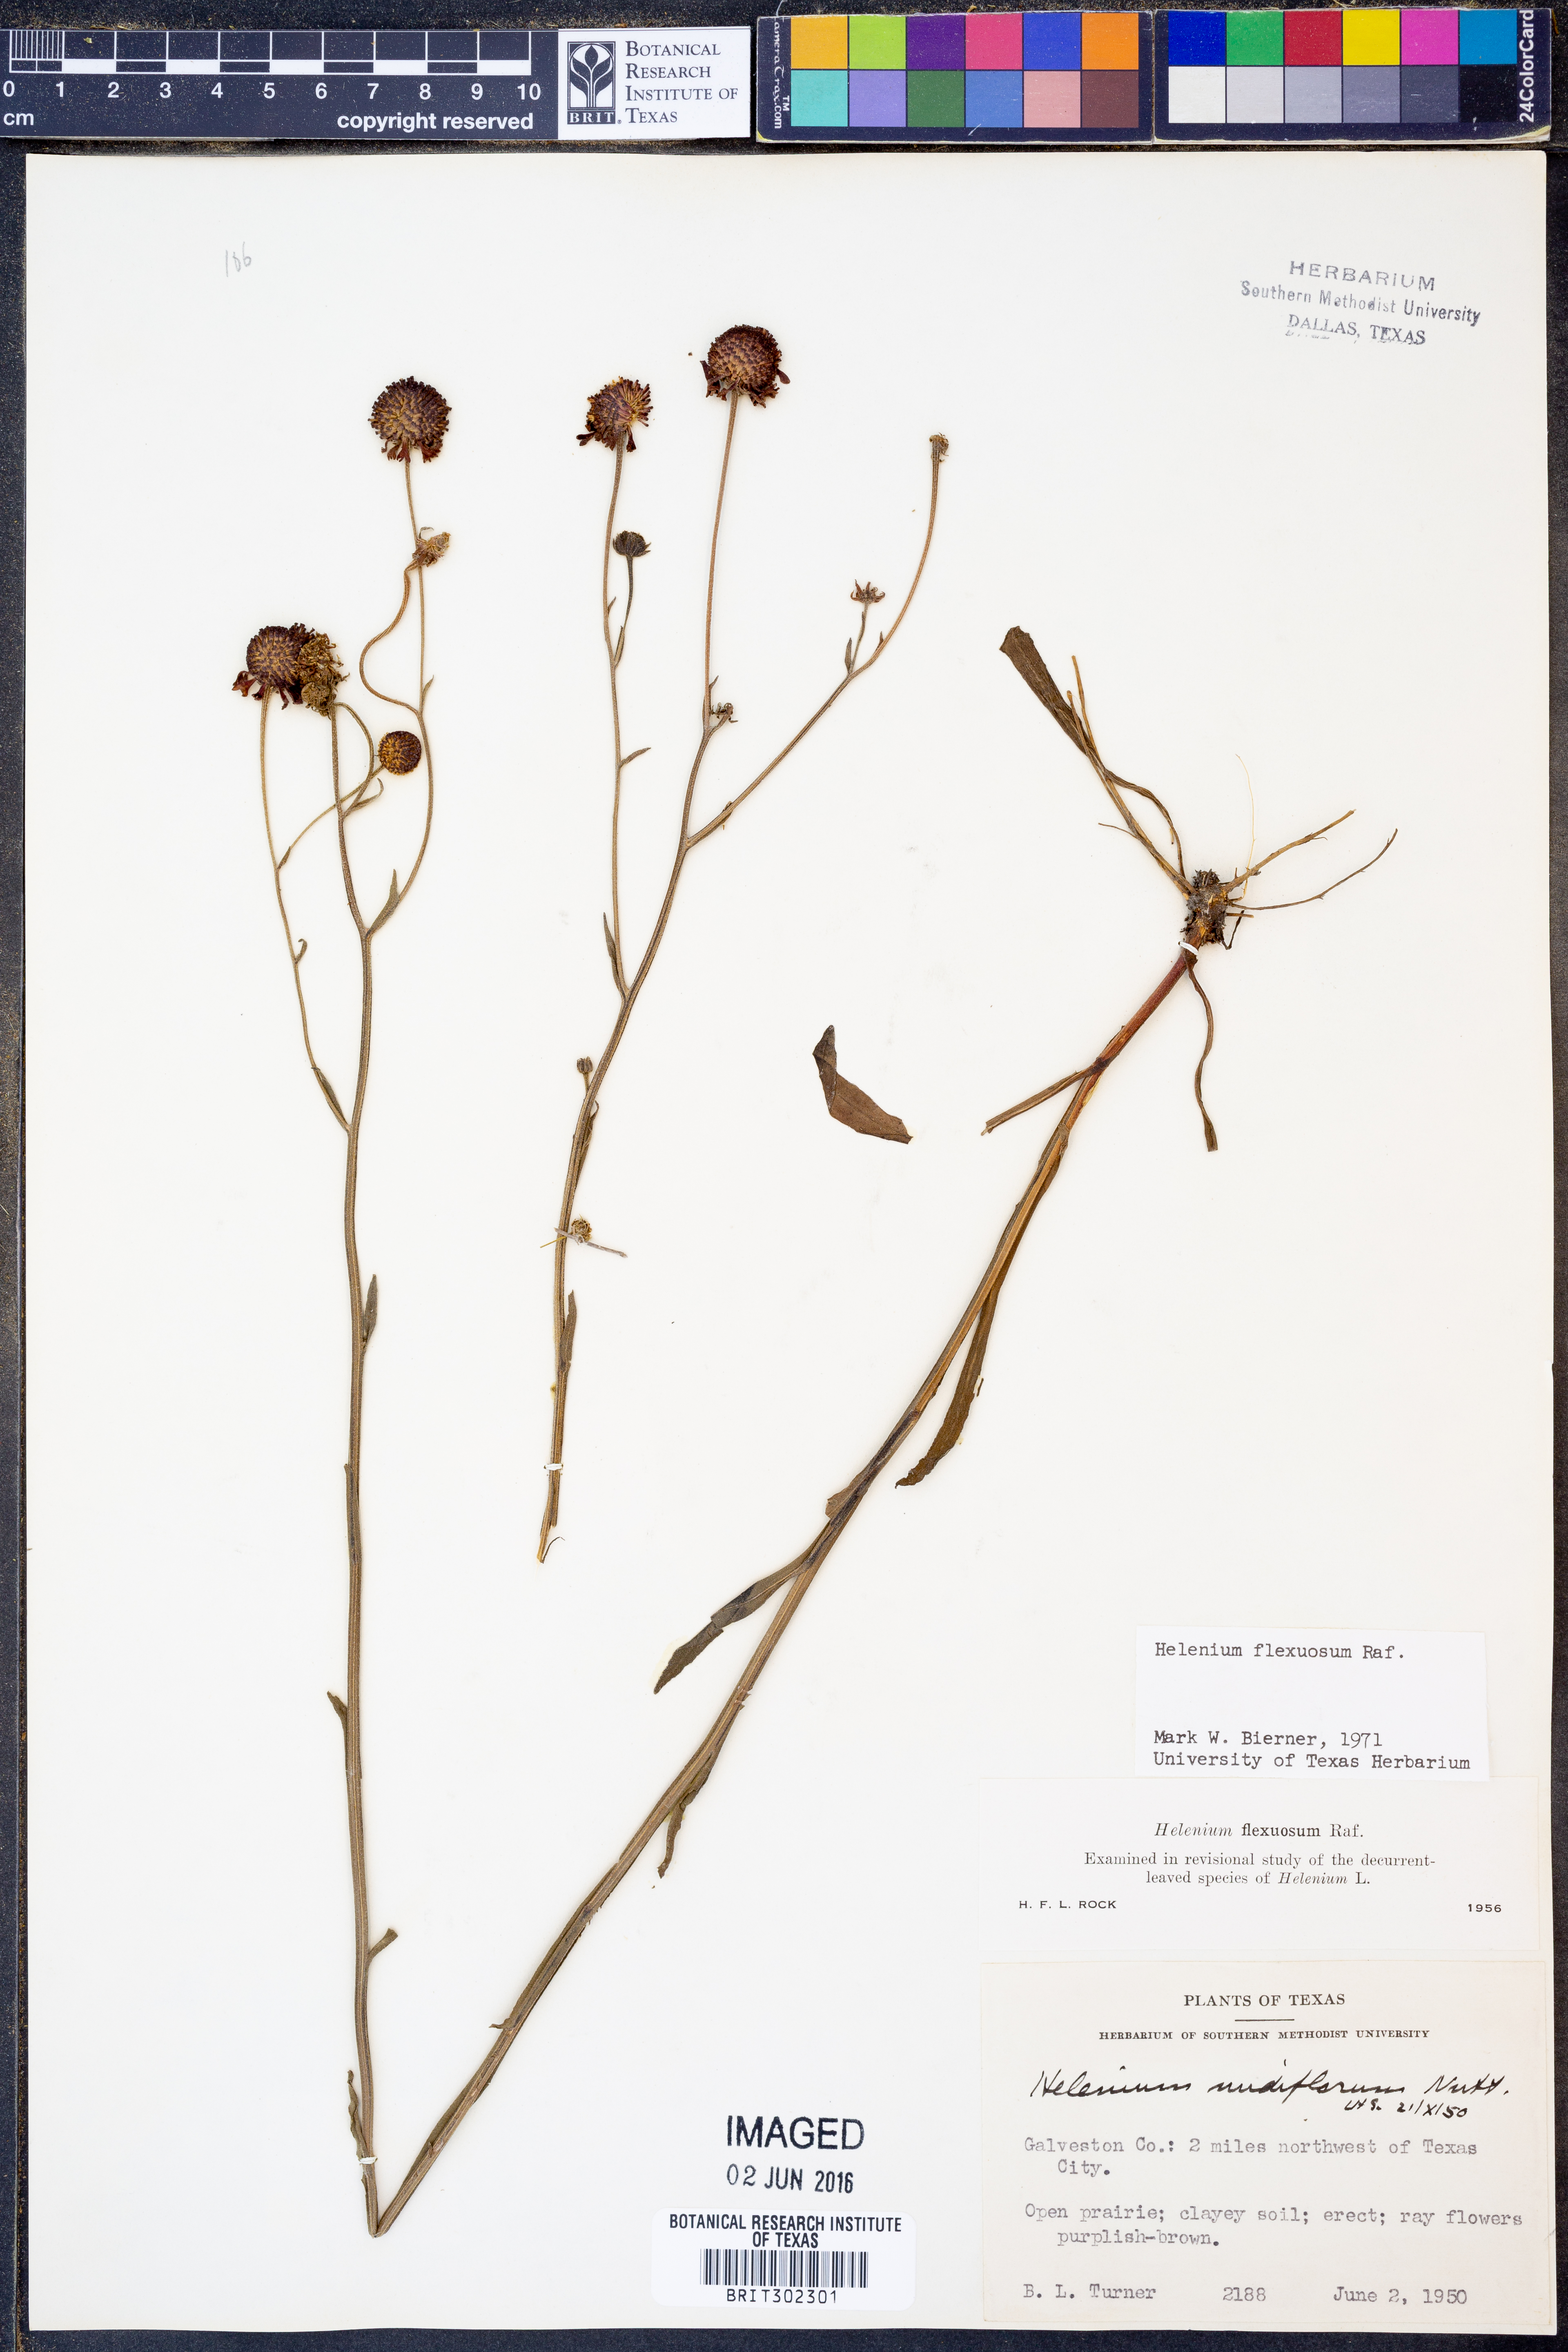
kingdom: Plantae
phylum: Tracheophyta
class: Magnoliopsida
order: Asterales
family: Asteraceae
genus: Helenium
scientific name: Helenium flexuosum
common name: Naked-flowered sneezeweed
